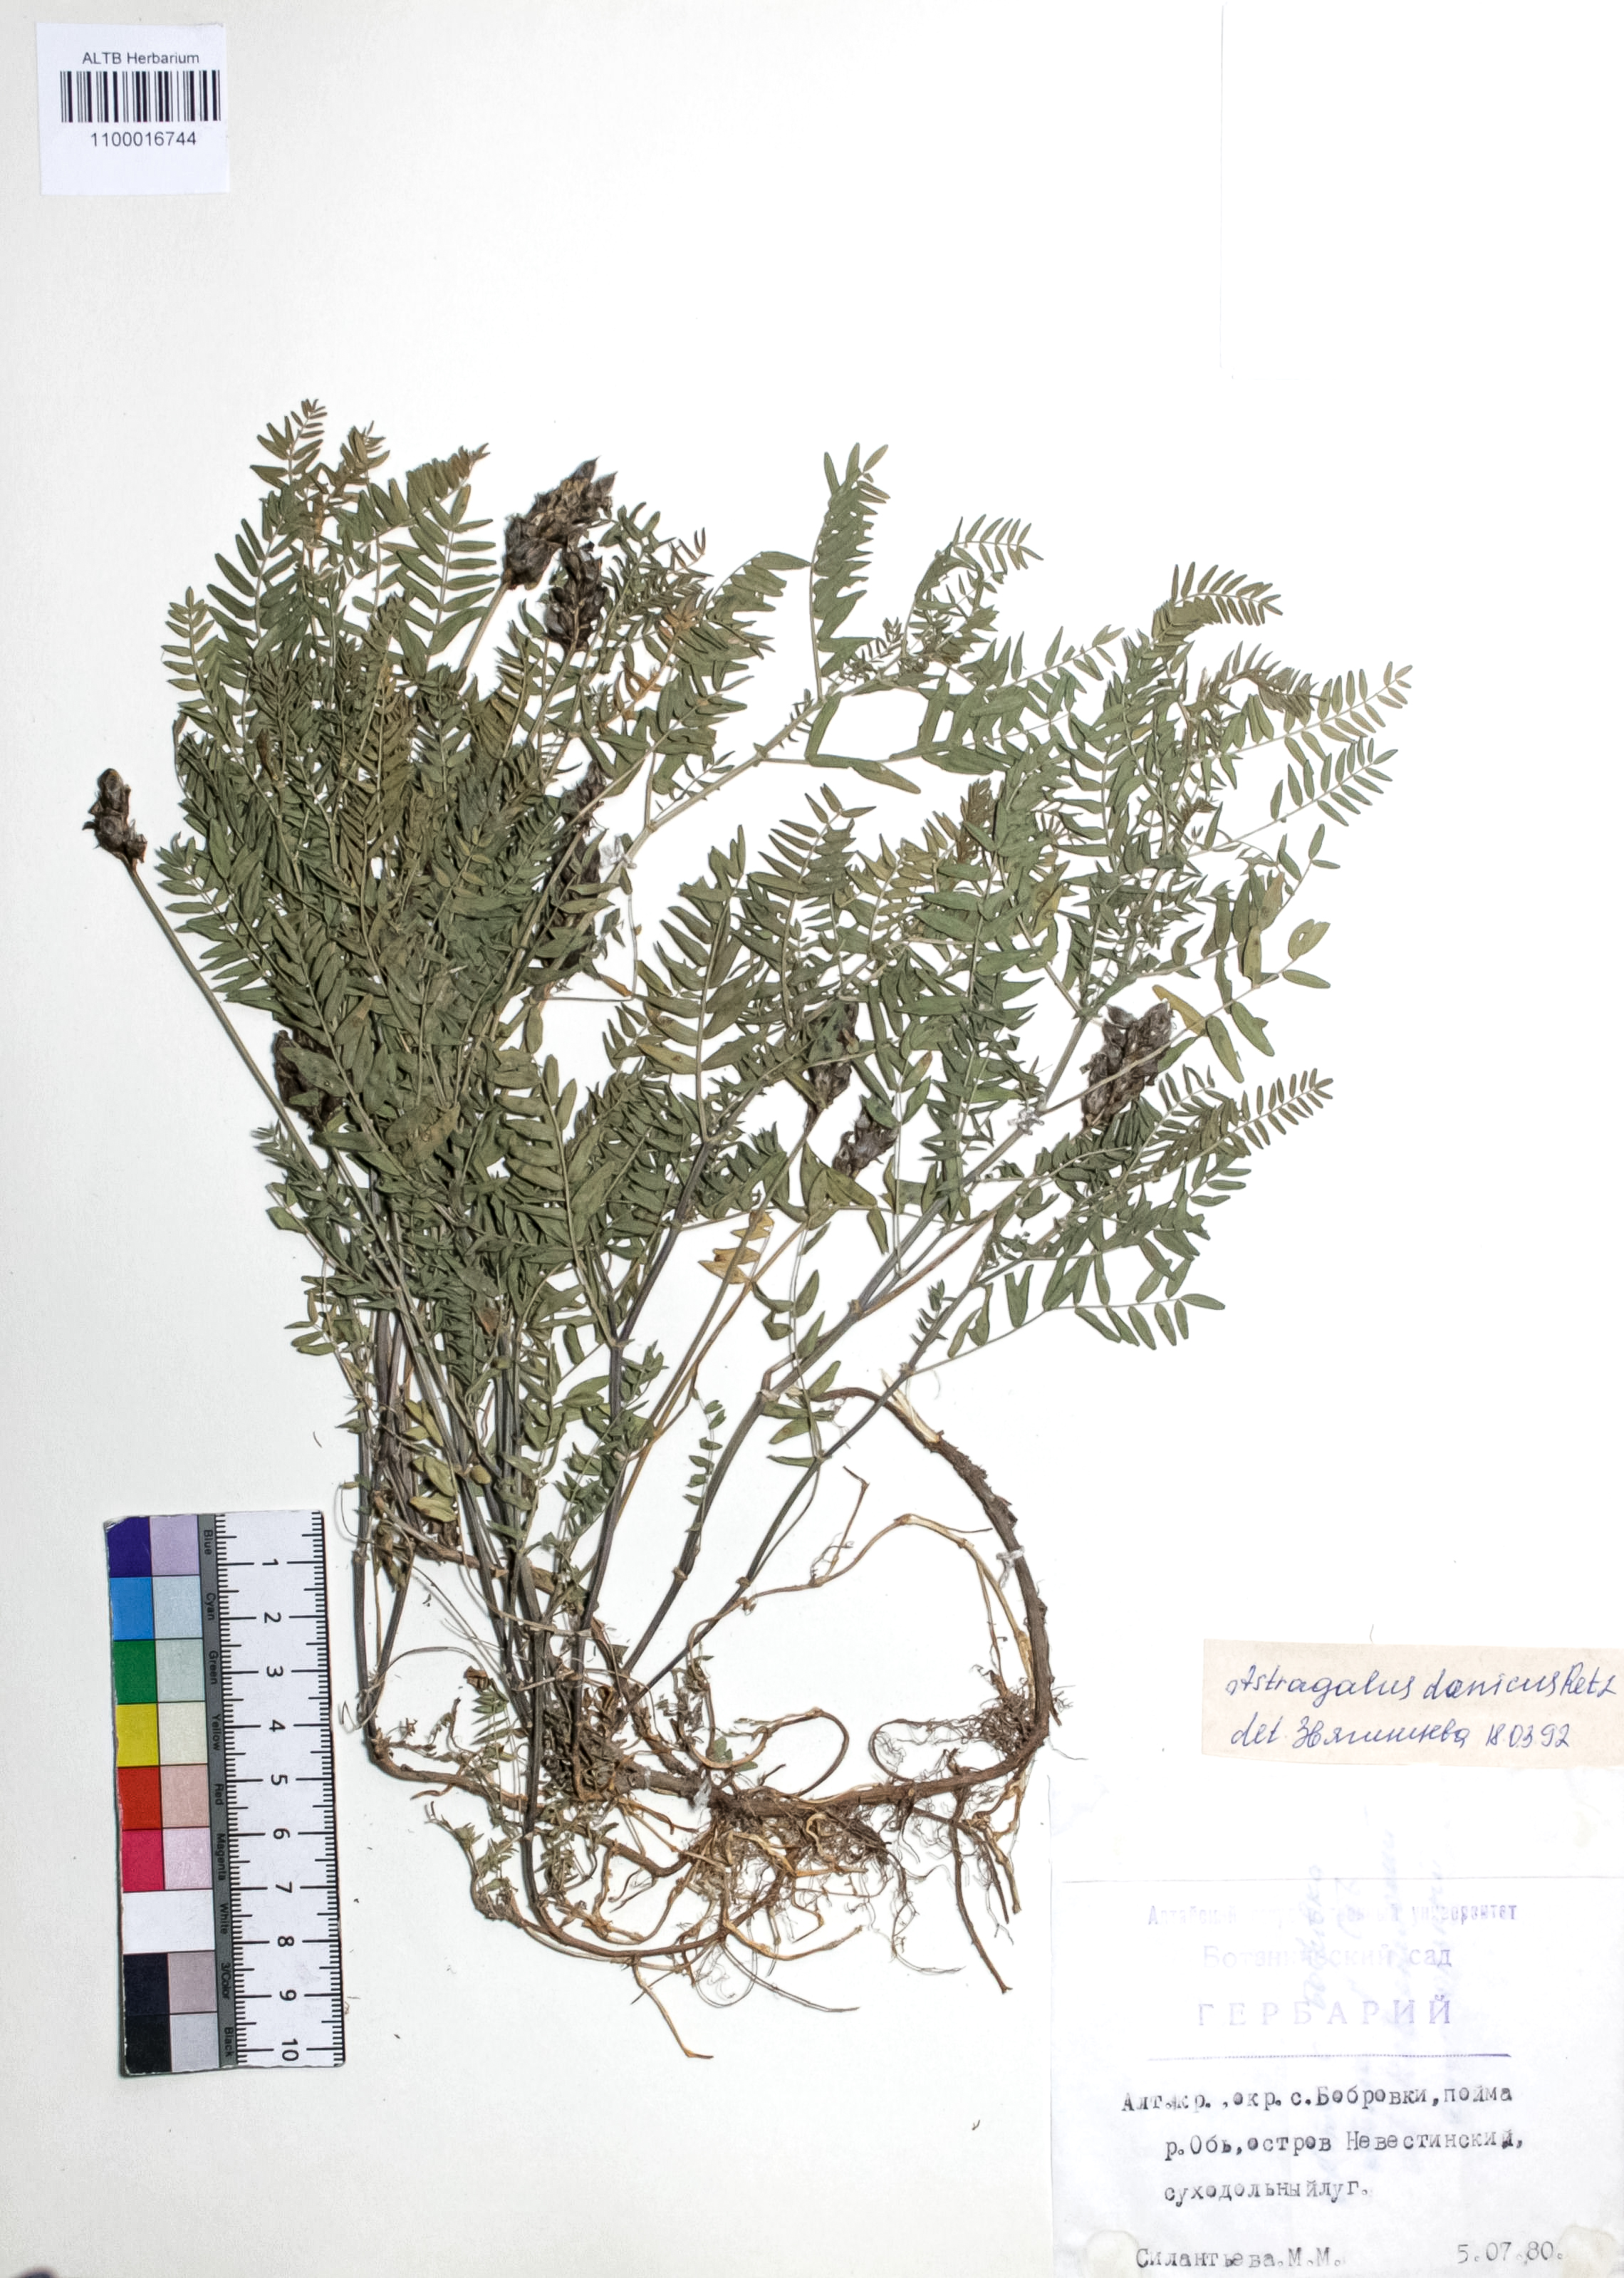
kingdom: Plantae
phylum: Tracheophyta
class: Magnoliopsida
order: Fabales
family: Fabaceae
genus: Astragalus
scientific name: Astragalus danicus
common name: Purple milk-vetch
